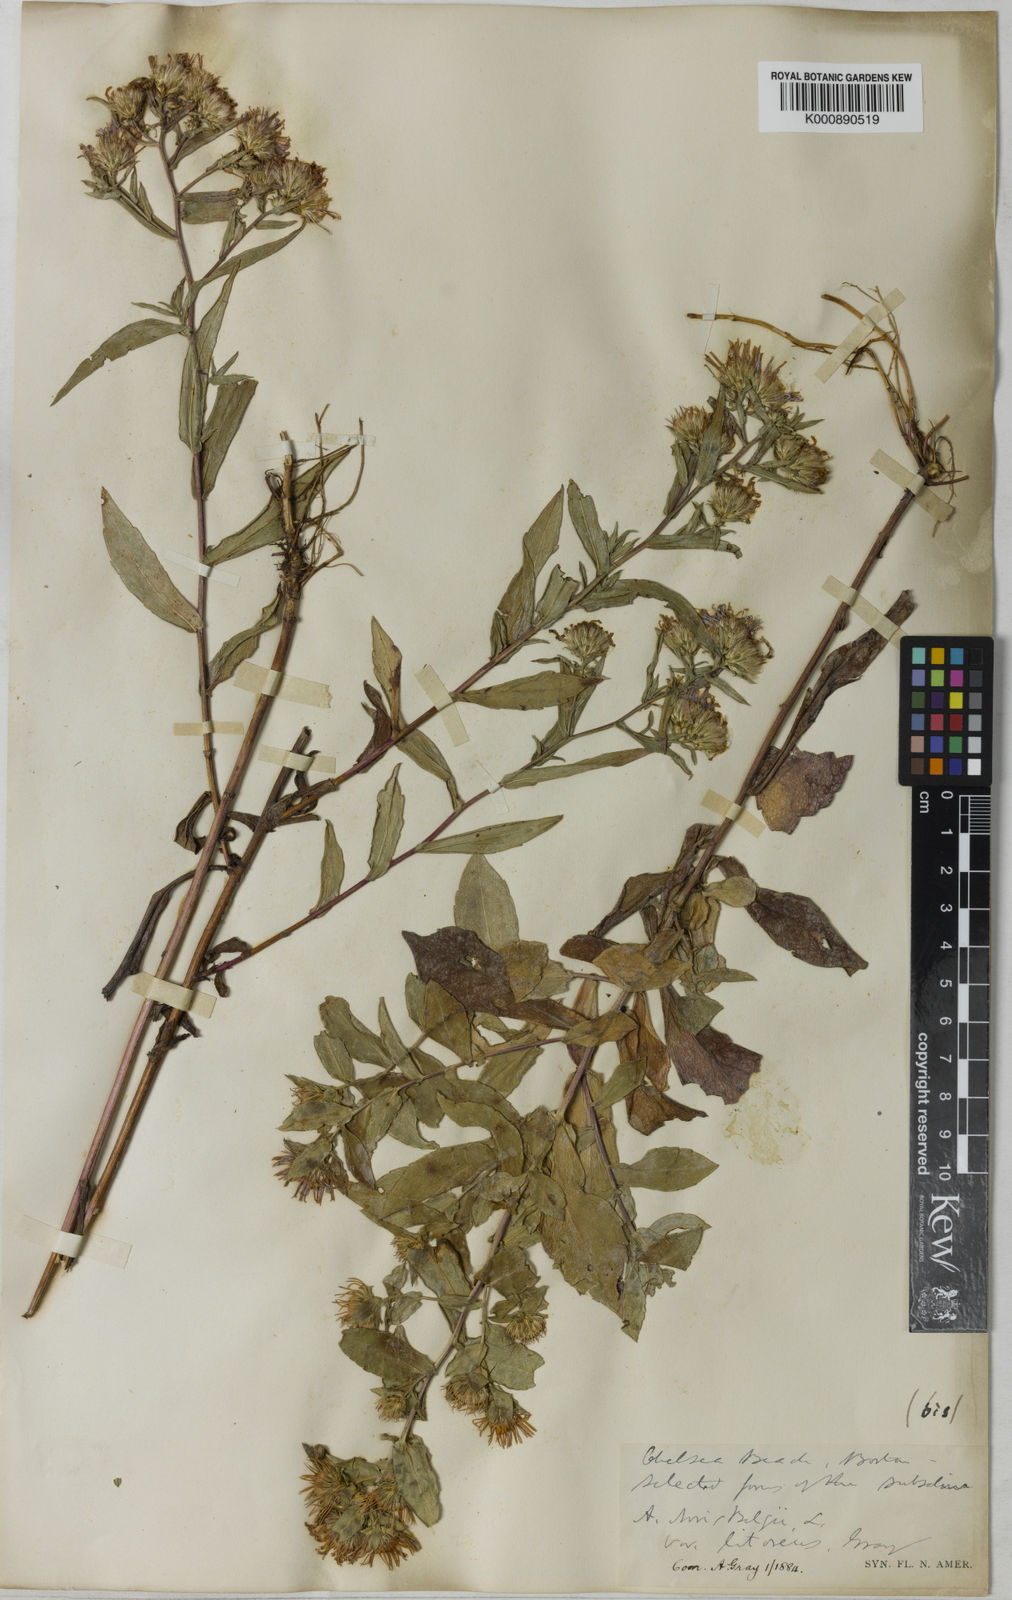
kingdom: Plantae
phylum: Tracheophyta
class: Magnoliopsida
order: Asterales
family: Asteraceae
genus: Symphyotrichum
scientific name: Symphyotrichum praealtum
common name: Willow aster
